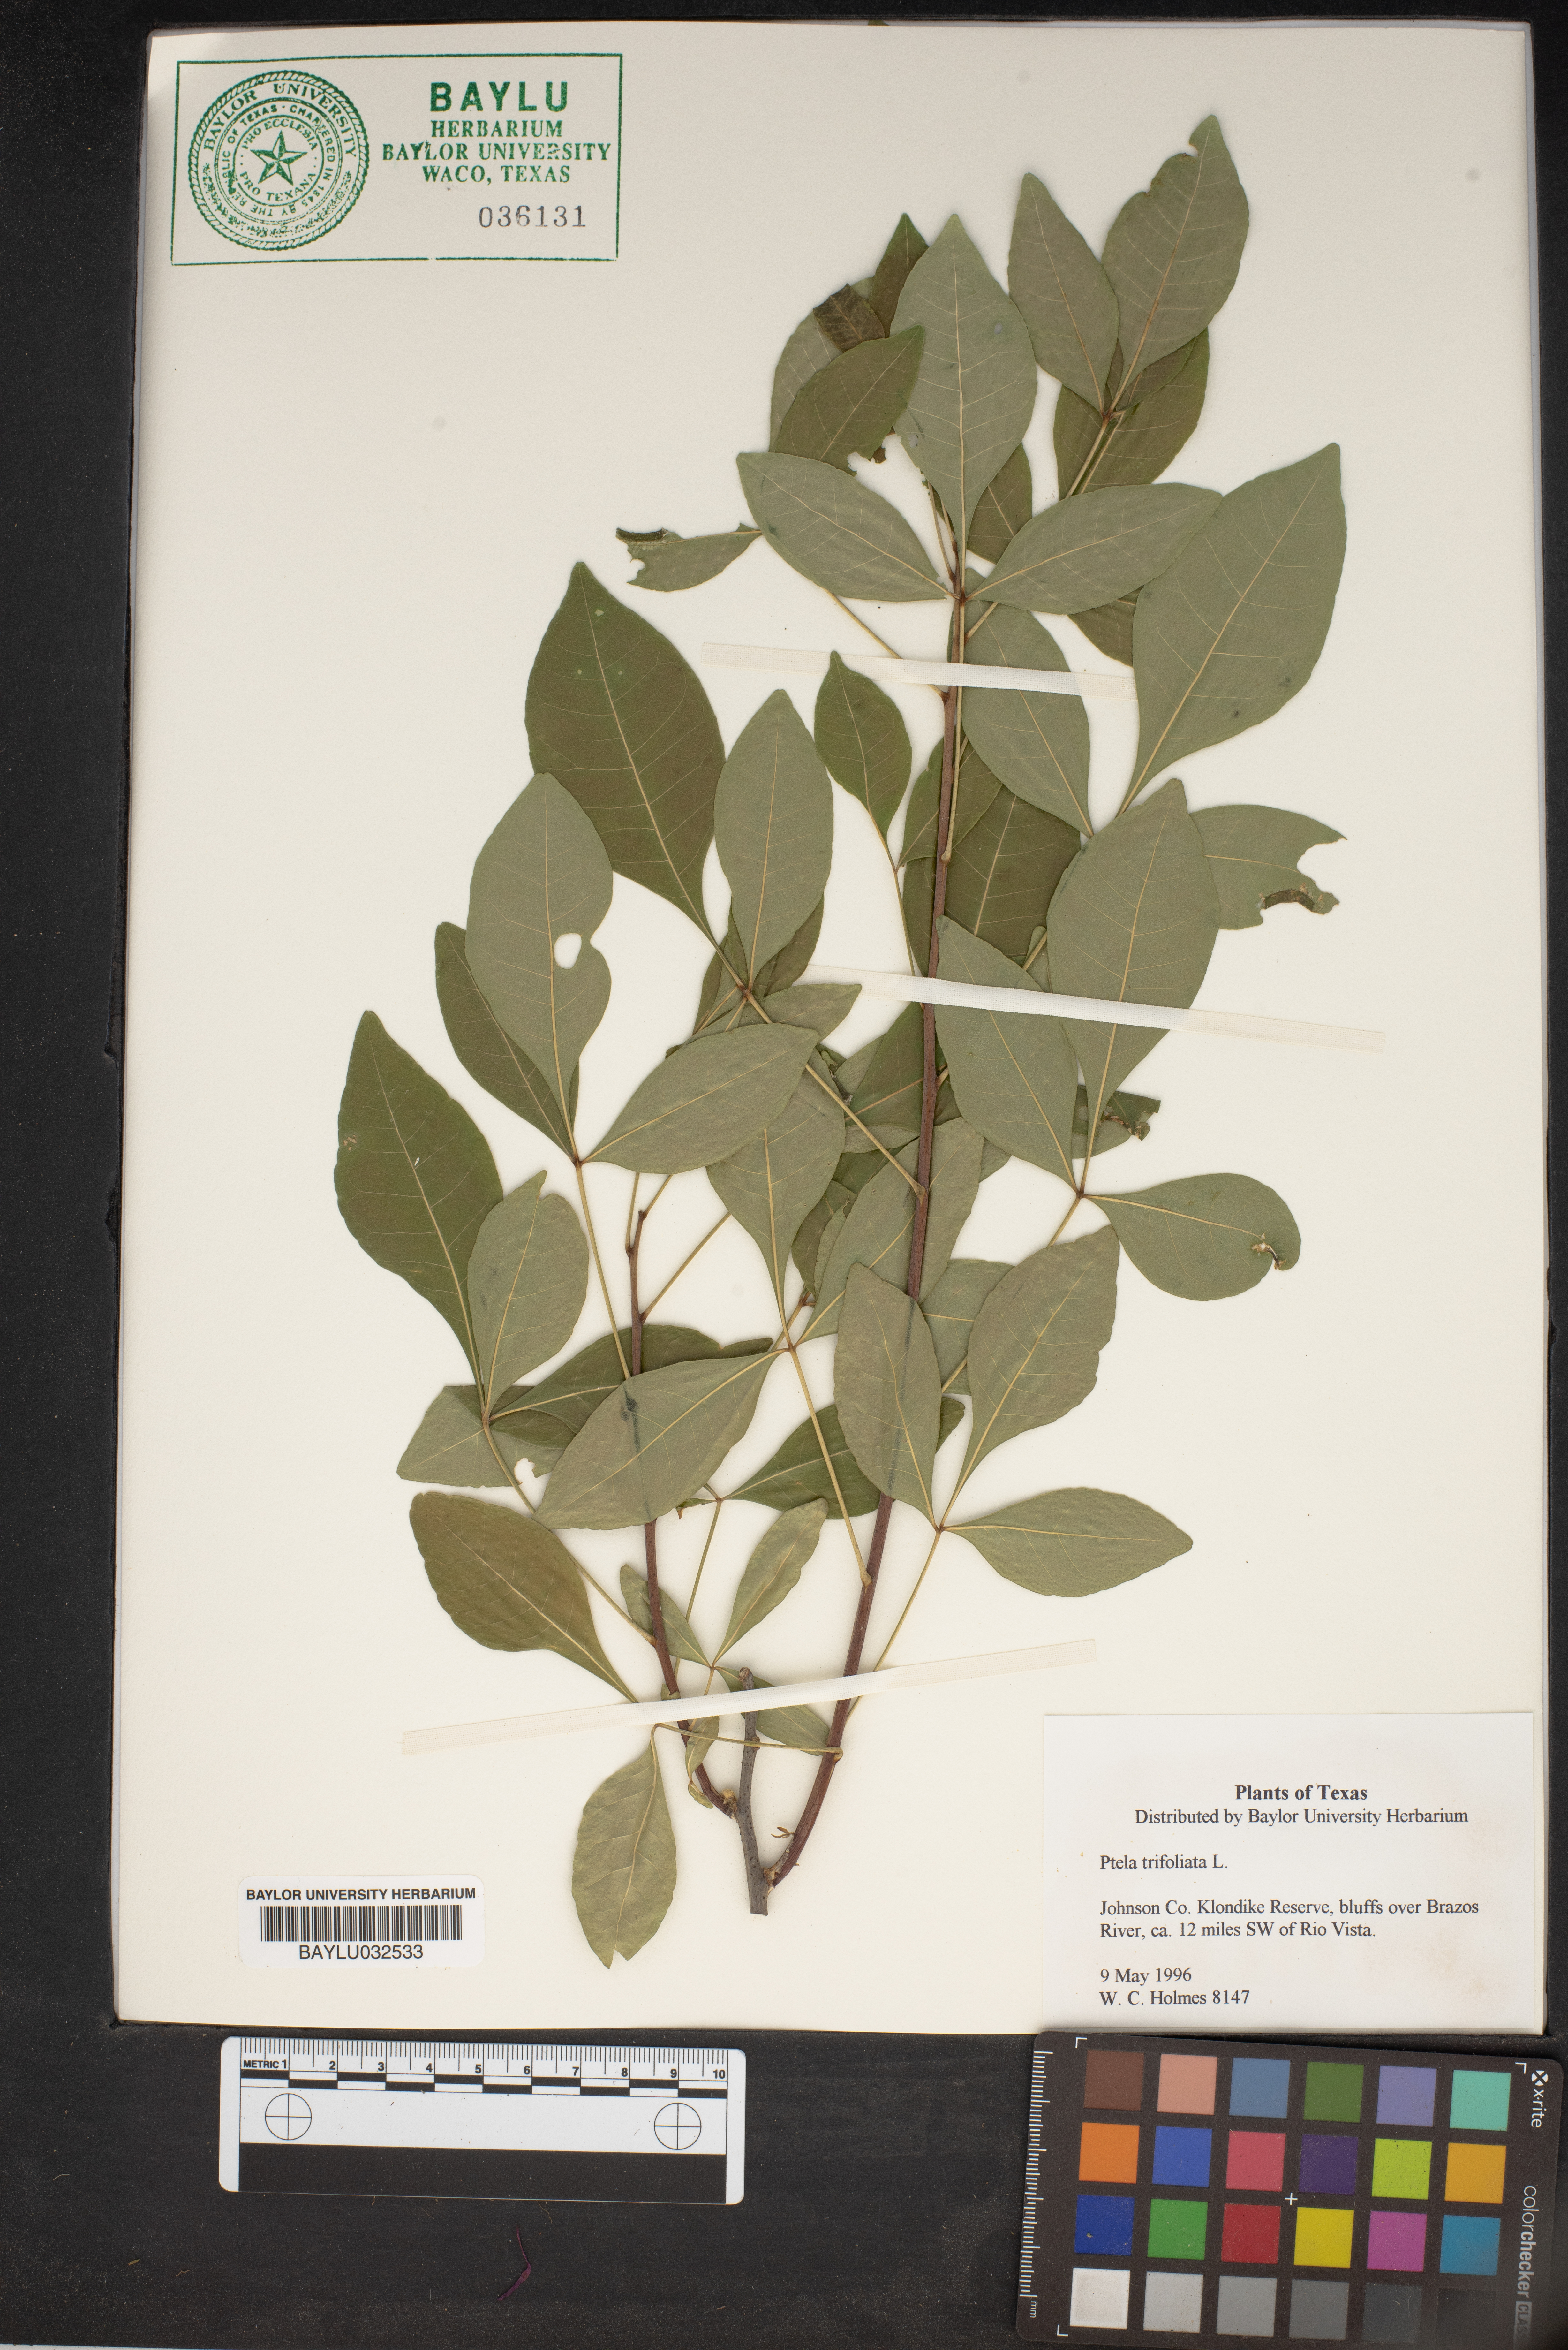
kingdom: Plantae
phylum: Tracheophyta
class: Magnoliopsida
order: Sapindales
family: Rutaceae
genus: Ptelea
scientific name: Ptelea trifoliata
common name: Common hop-tree
